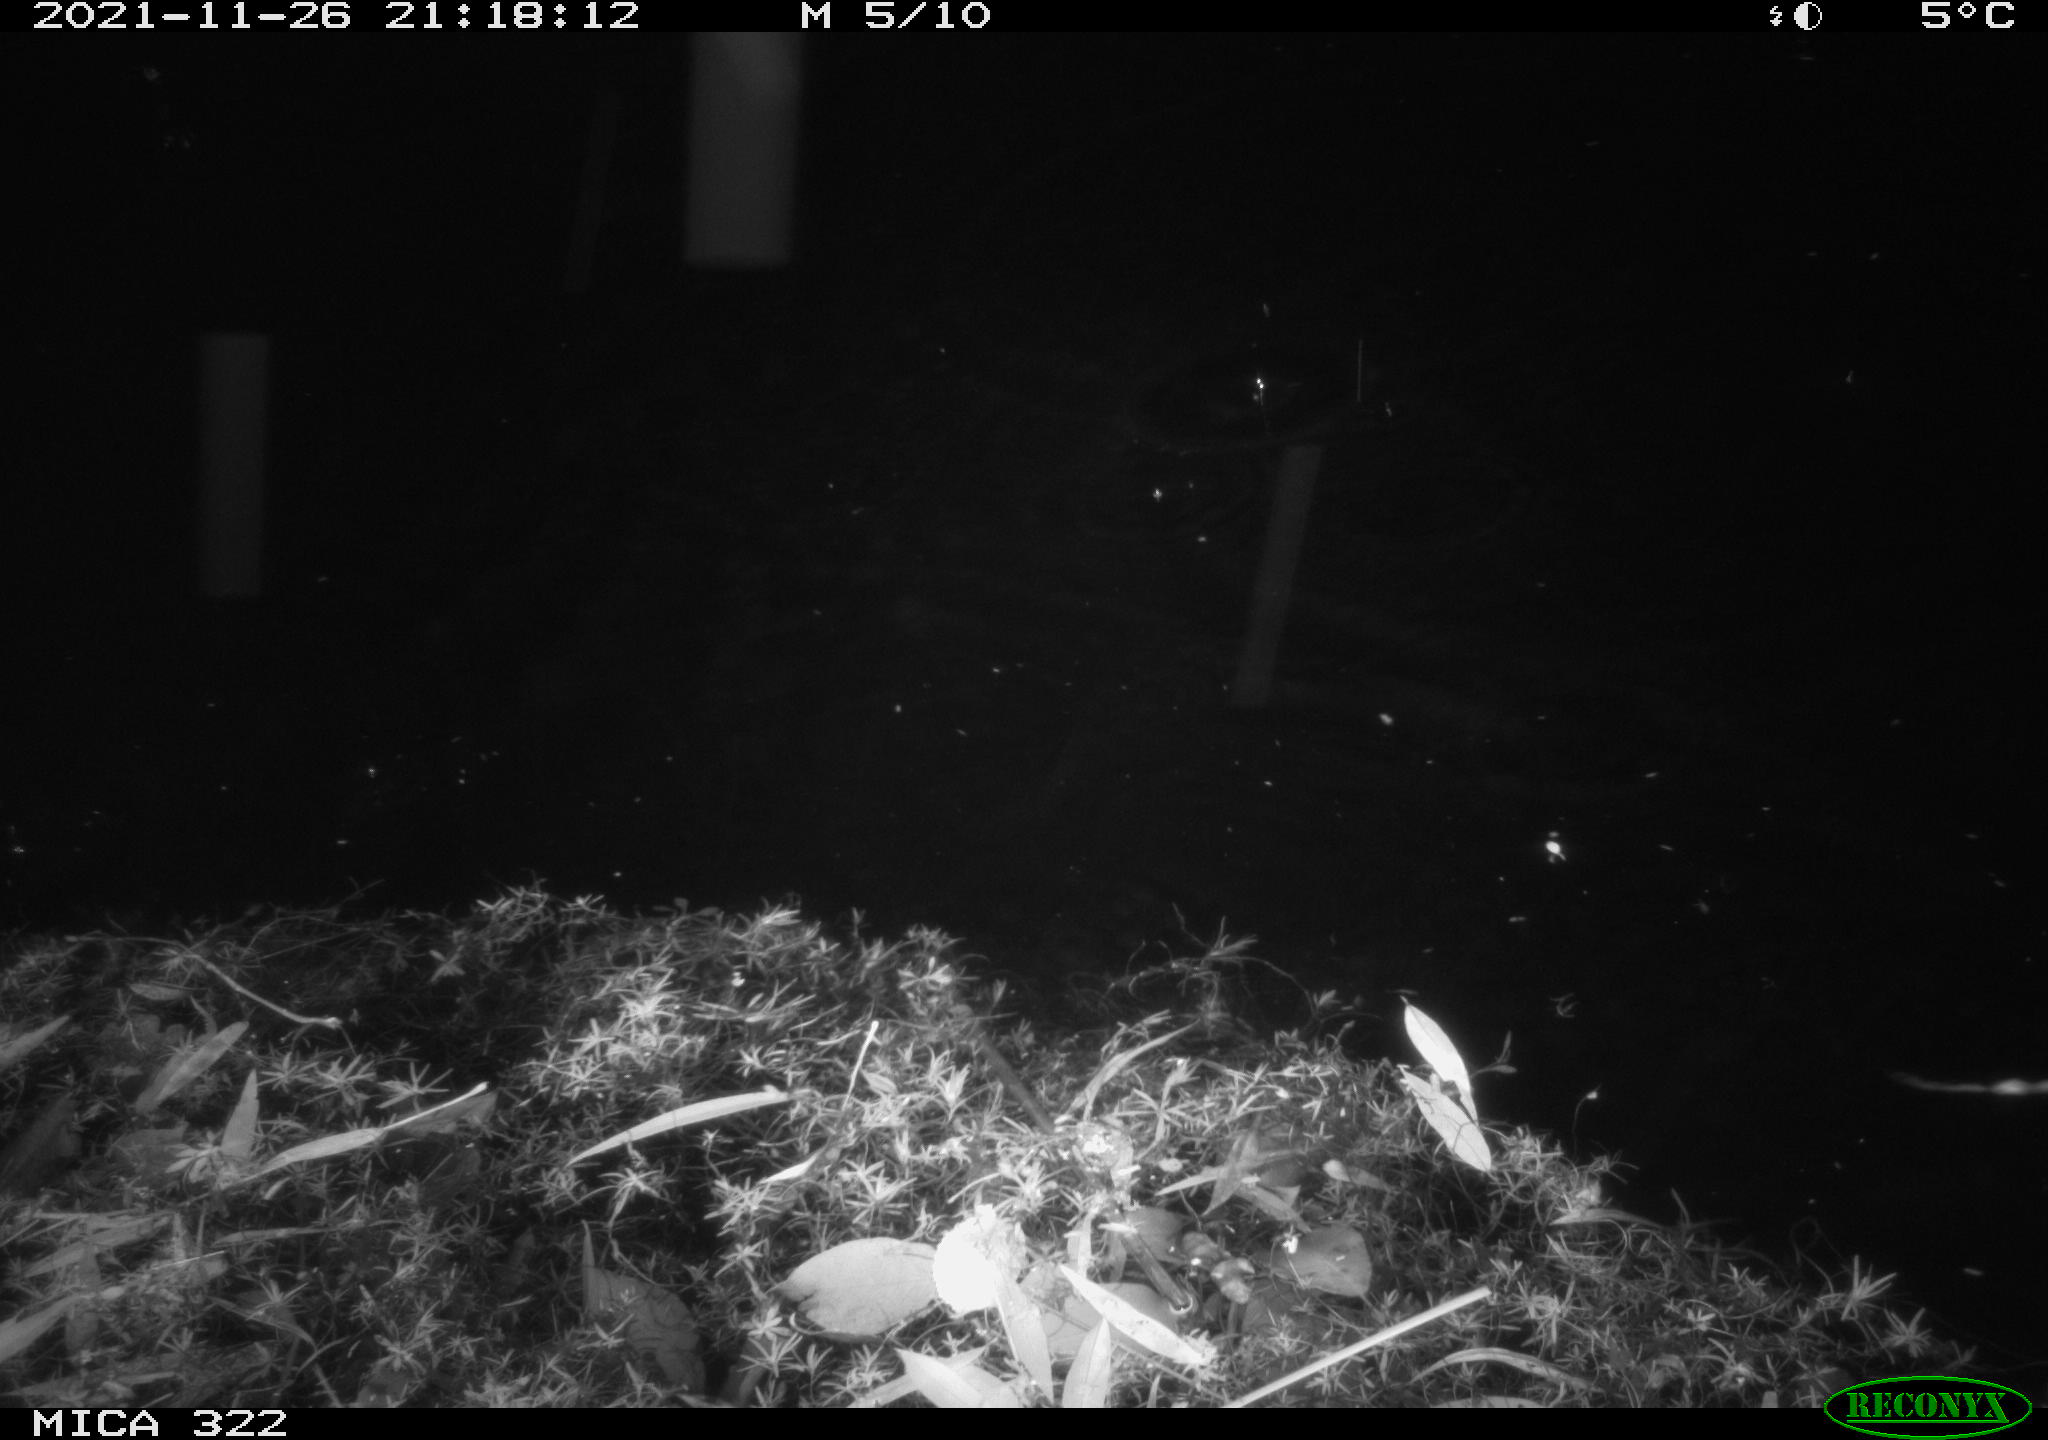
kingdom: Animalia
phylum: Chordata
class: Mammalia
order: Rodentia
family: Muridae
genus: Rattus
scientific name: Rattus norvegicus
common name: Brown rat
